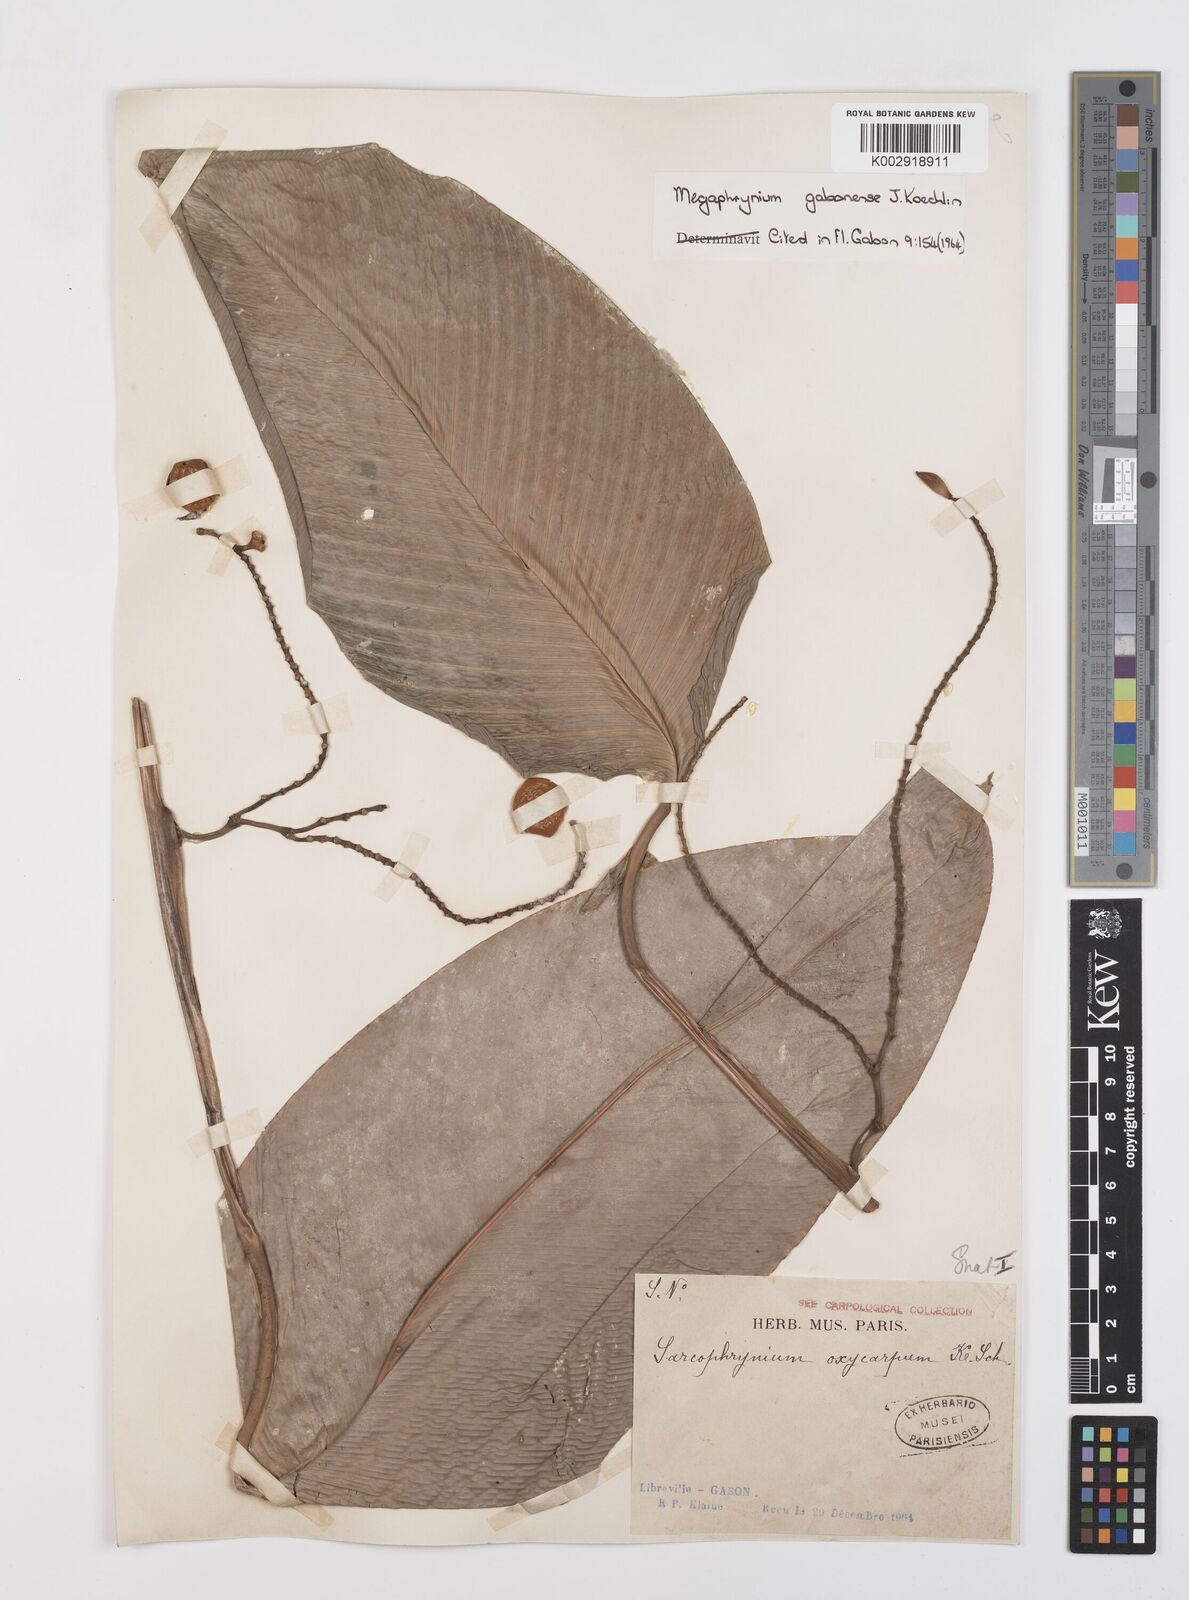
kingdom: Plantae
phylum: Tracheophyta
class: Liliopsida
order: Zingiberales
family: Marantaceae
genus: Megaphrynium
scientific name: Megaphrynium gabonense
